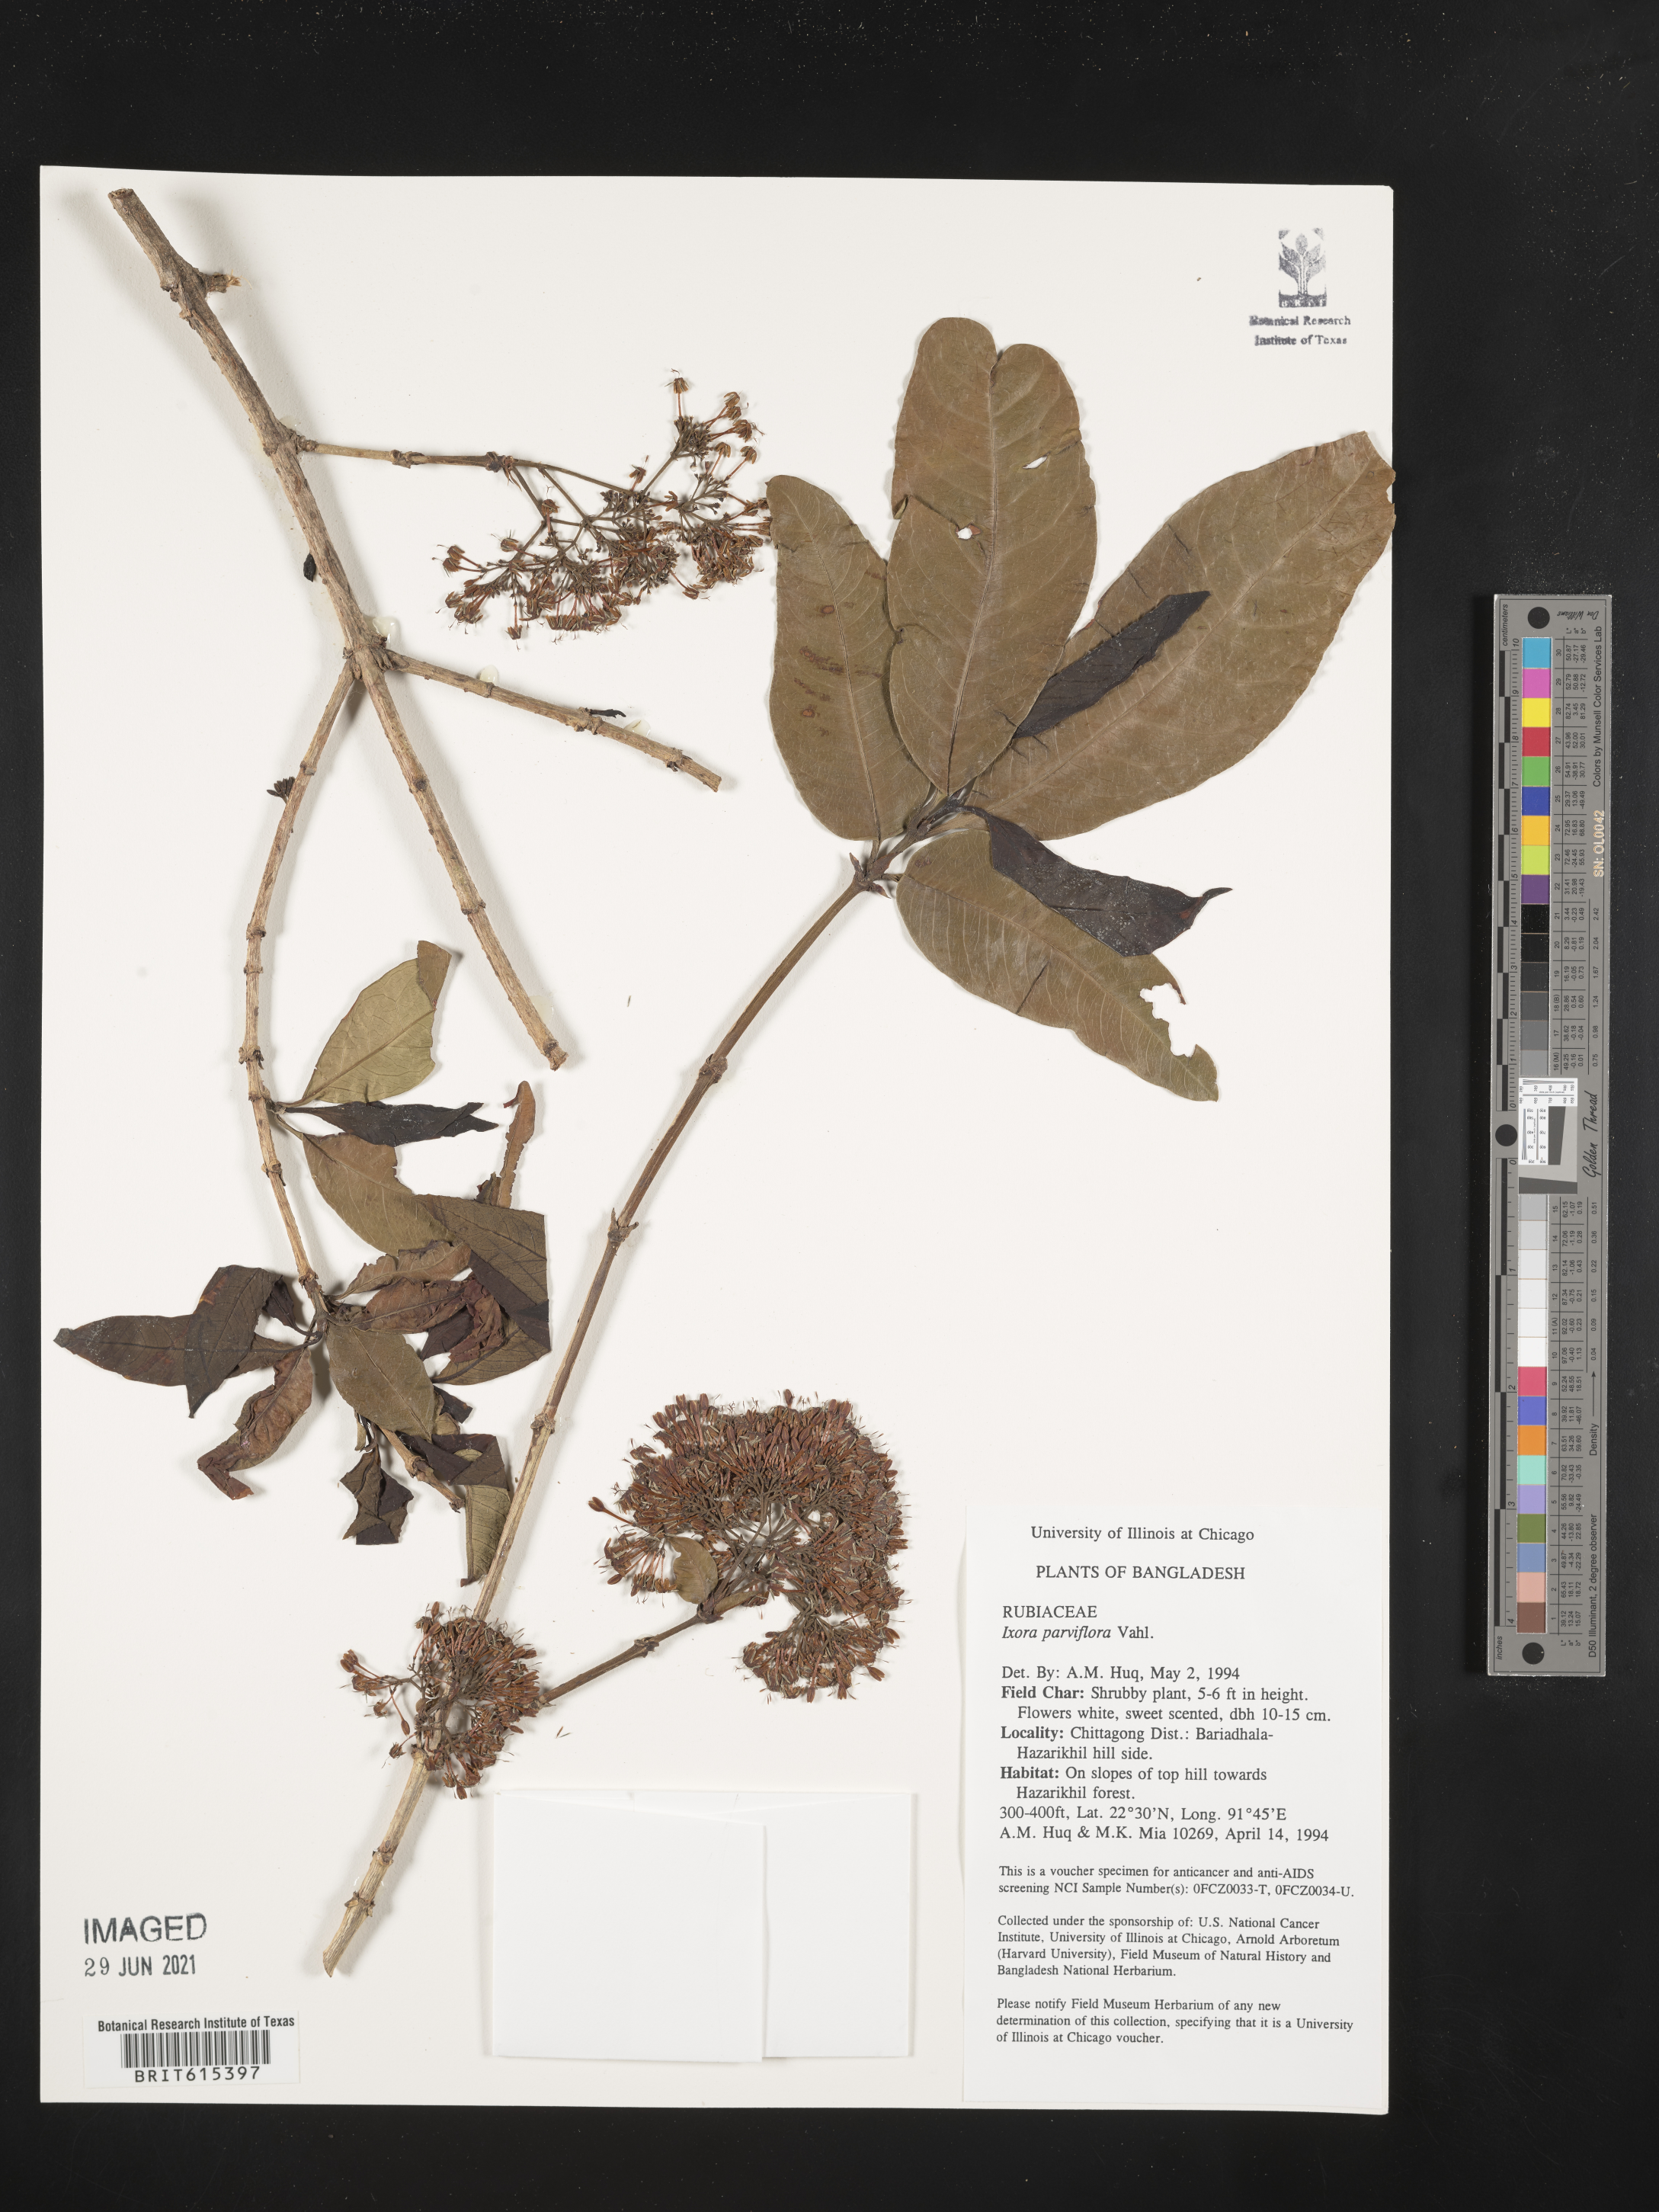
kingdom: Plantae
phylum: Tracheophyta
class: Magnoliopsida
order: Gentianales
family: Rubiaceae
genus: Ixora
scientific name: Ixora pavetta
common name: Torch tree
